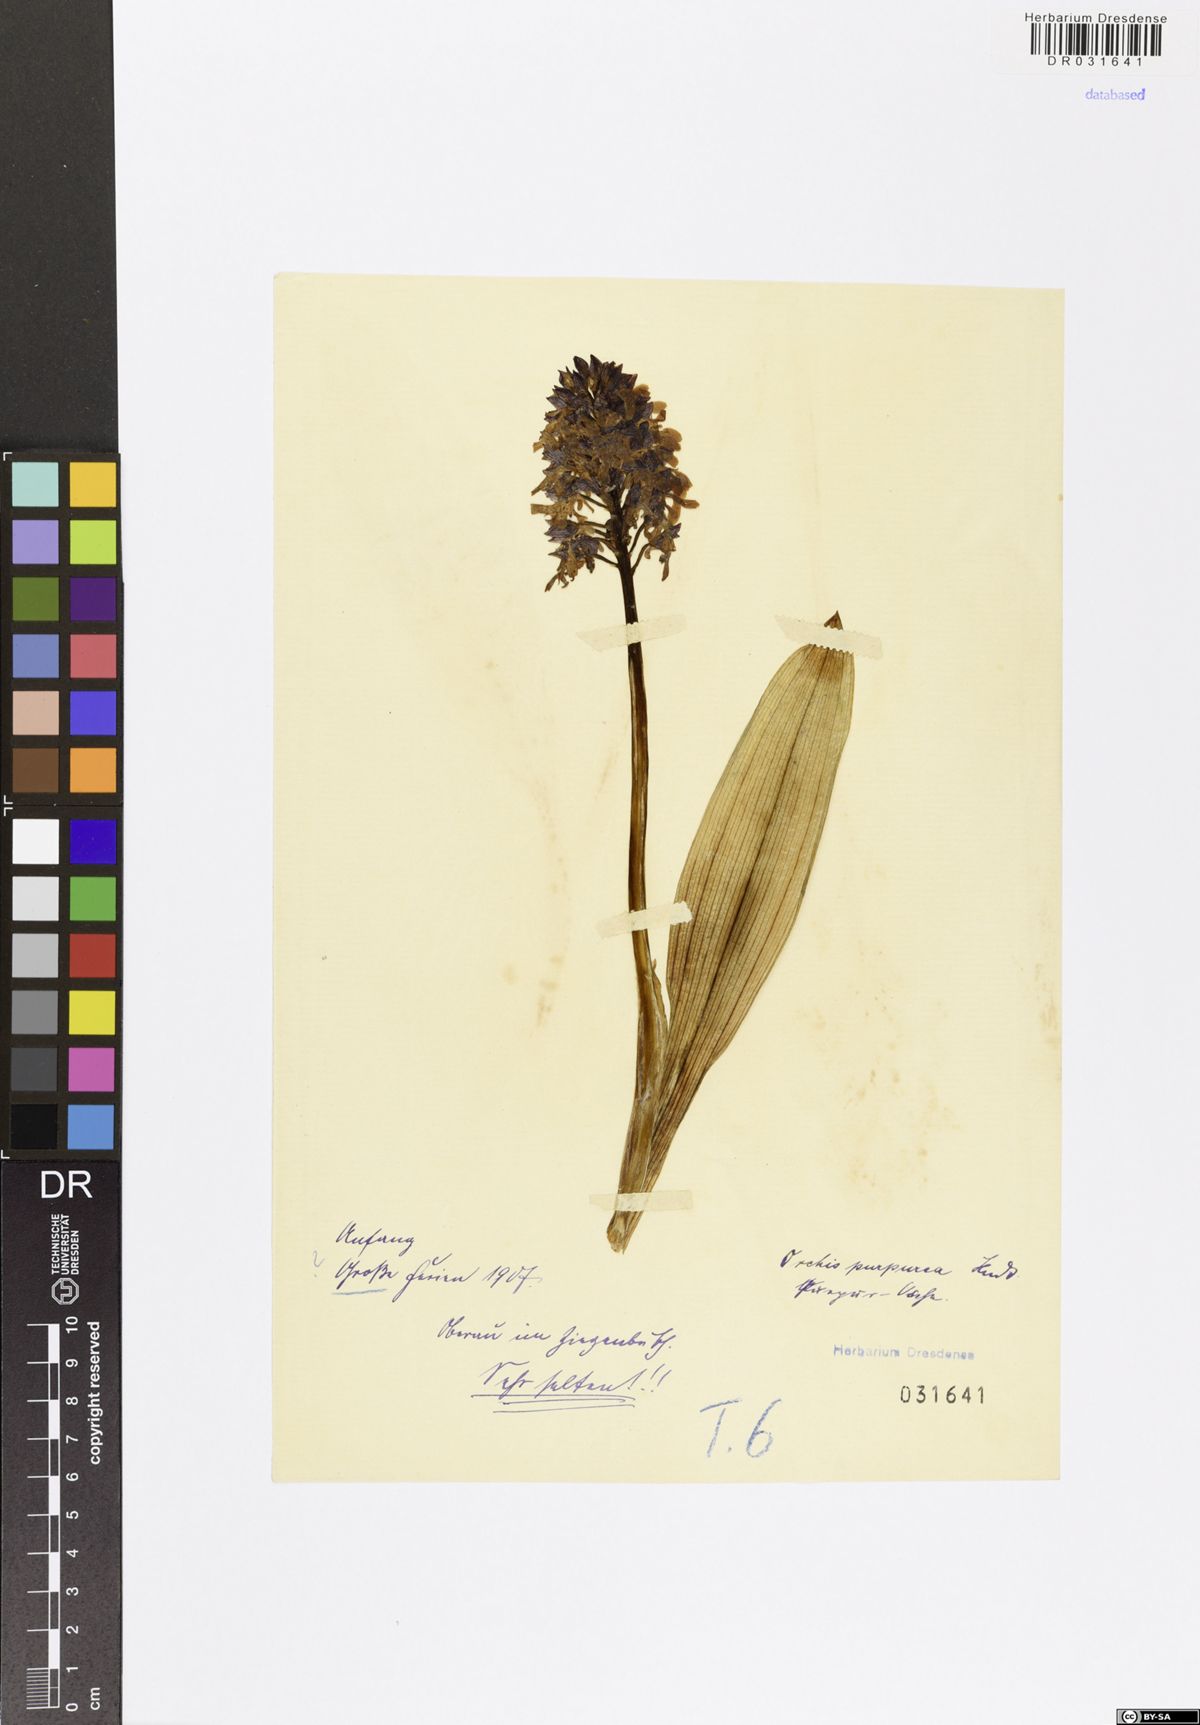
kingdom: Plantae
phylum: Tracheophyta
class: Liliopsida
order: Asparagales
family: Orchidaceae
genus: Orchis
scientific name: Orchis purpurea
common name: Lady orchid
